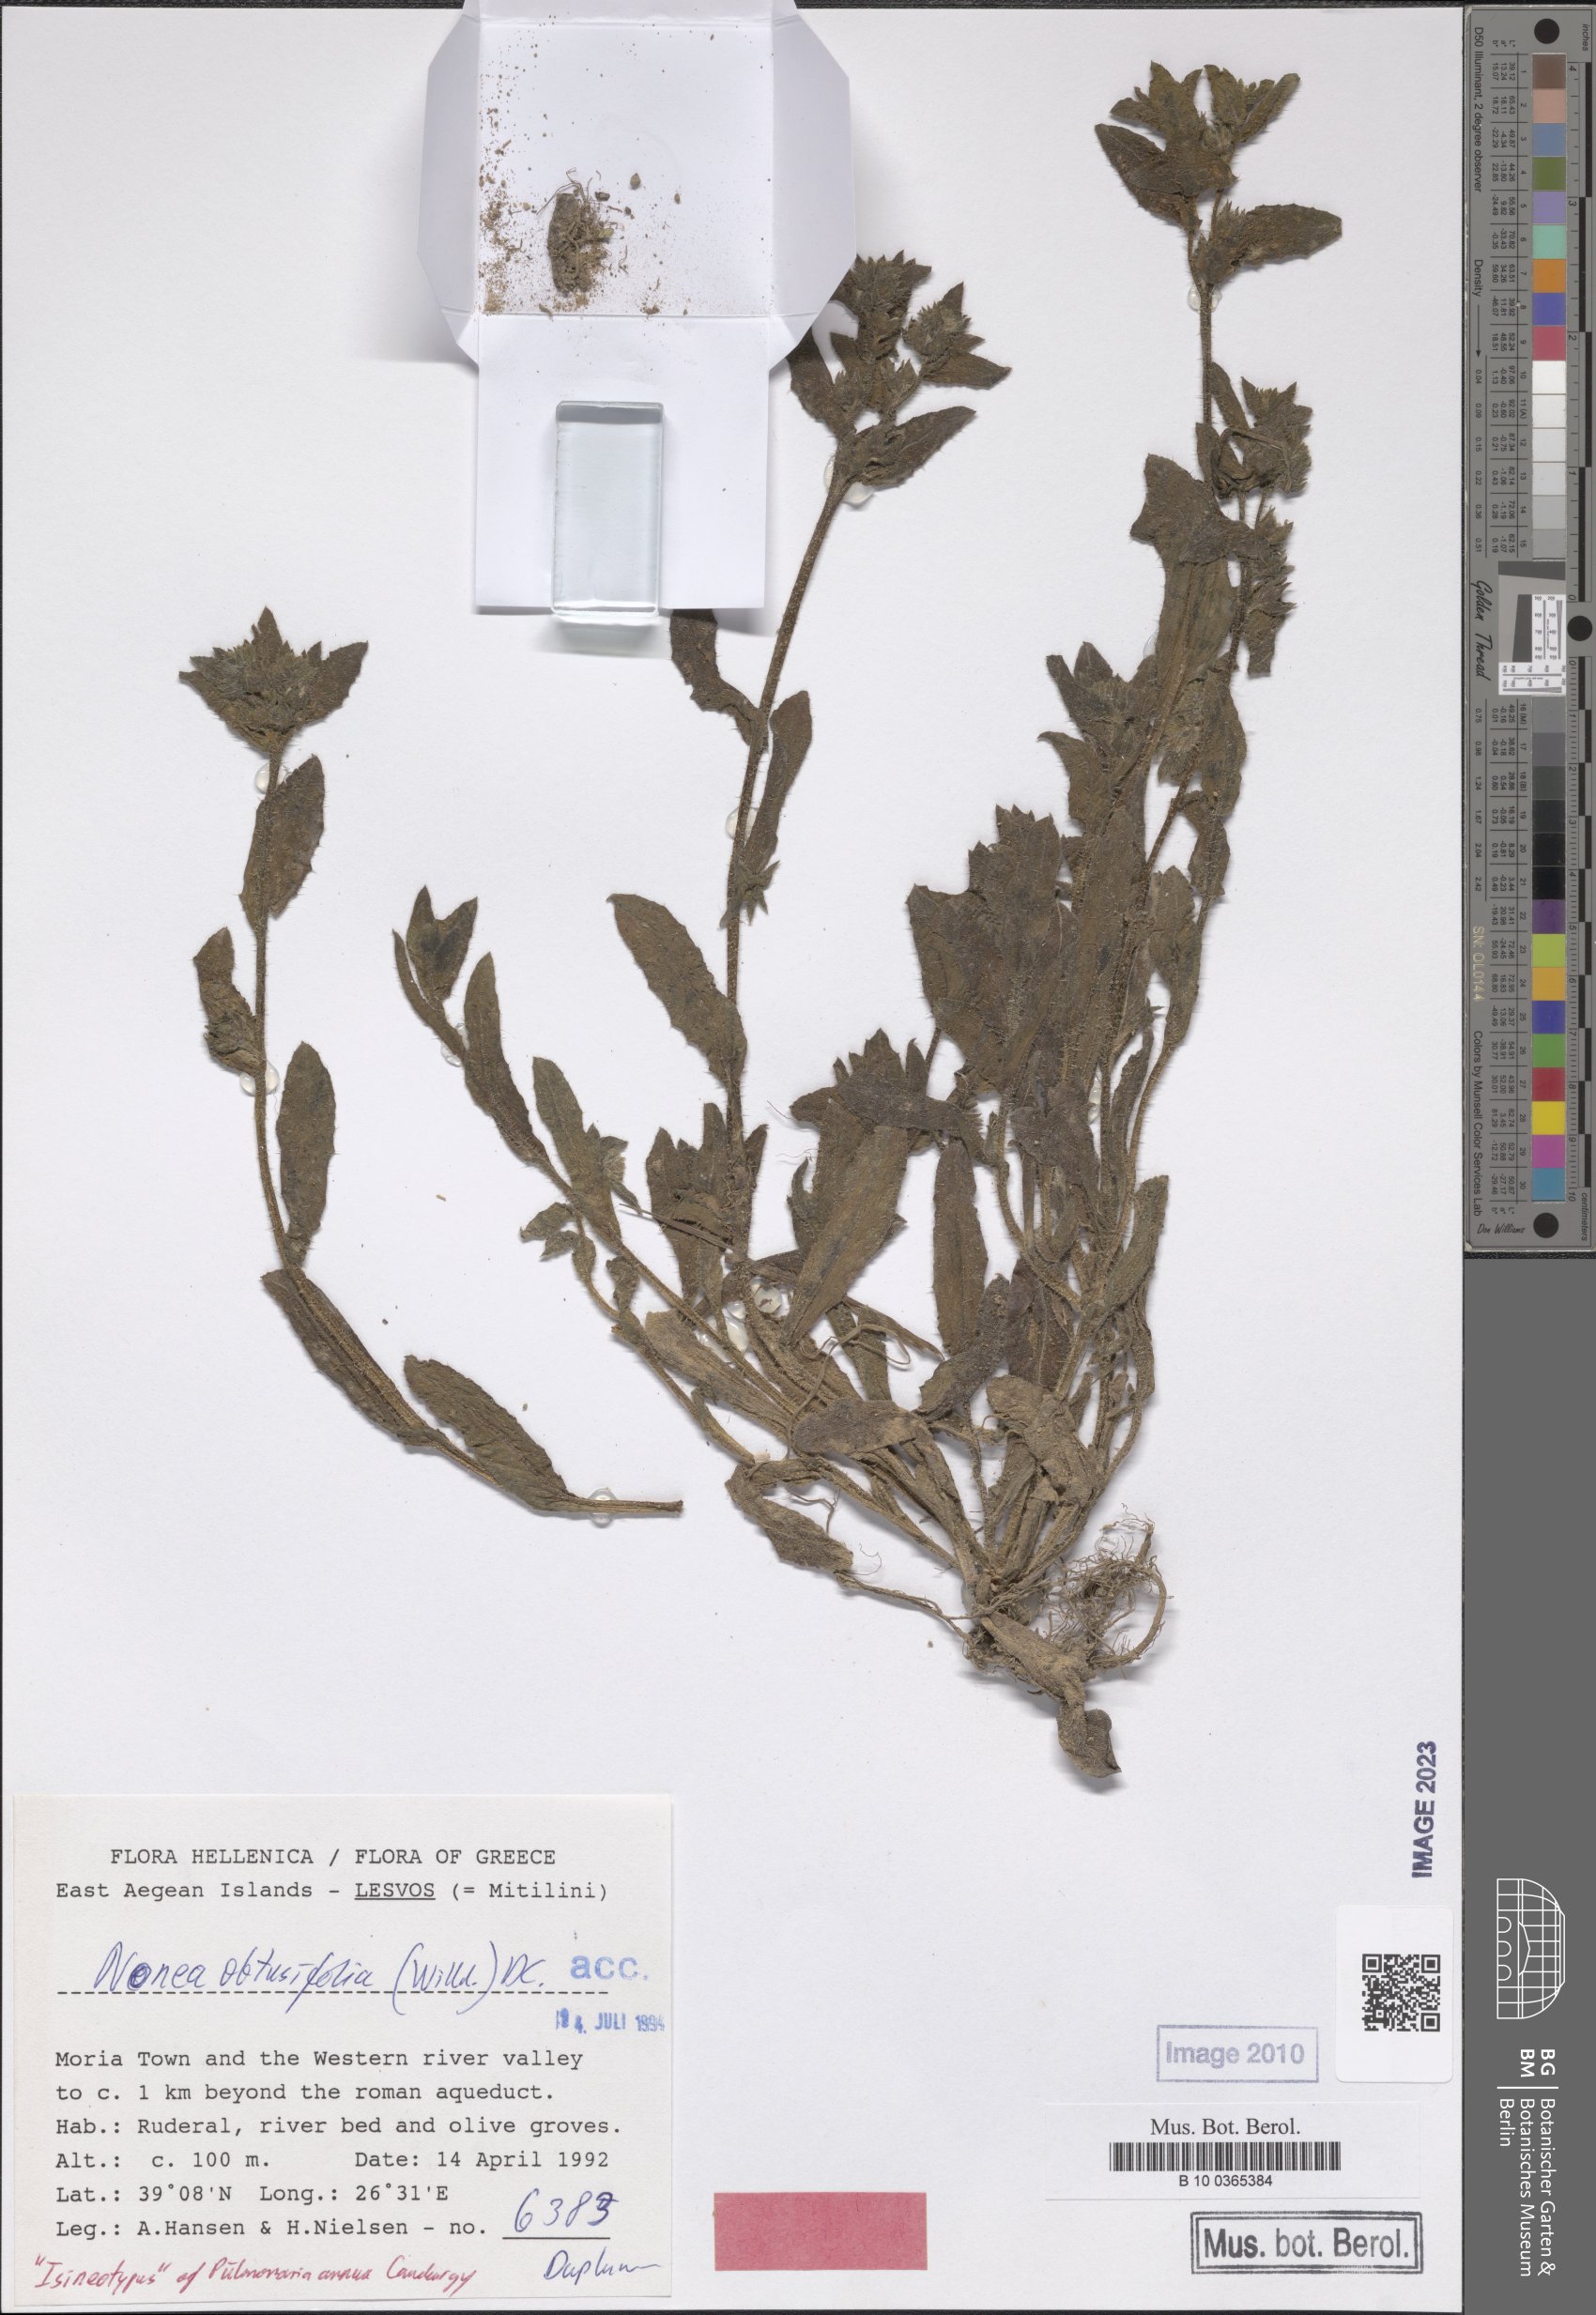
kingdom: Plantae
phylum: Tracheophyta
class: Magnoliopsida
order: Boraginales
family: Boraginaceae
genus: Melanortocarya
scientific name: Melanortocarya obtusifolia
